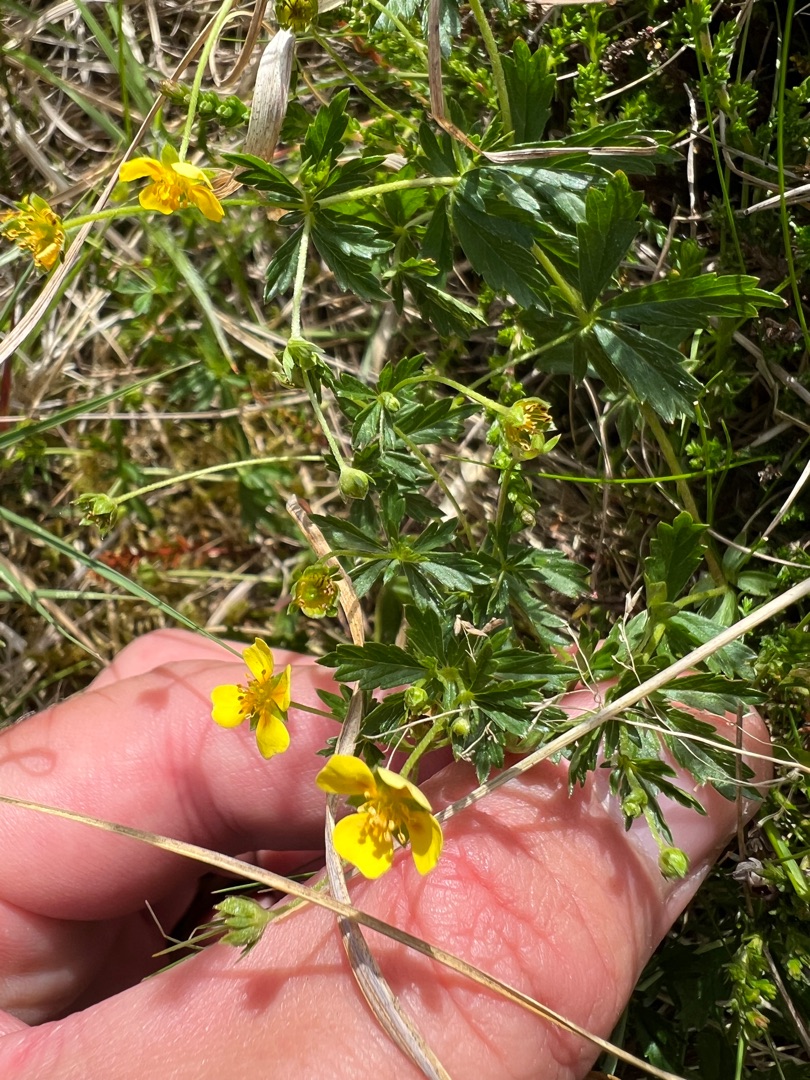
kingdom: Plantae
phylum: Tracheophyta
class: Magnoliopsida
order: Rosales
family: Rosaceae
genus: Potentilla
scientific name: Potentilla erecta
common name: Tormentil
